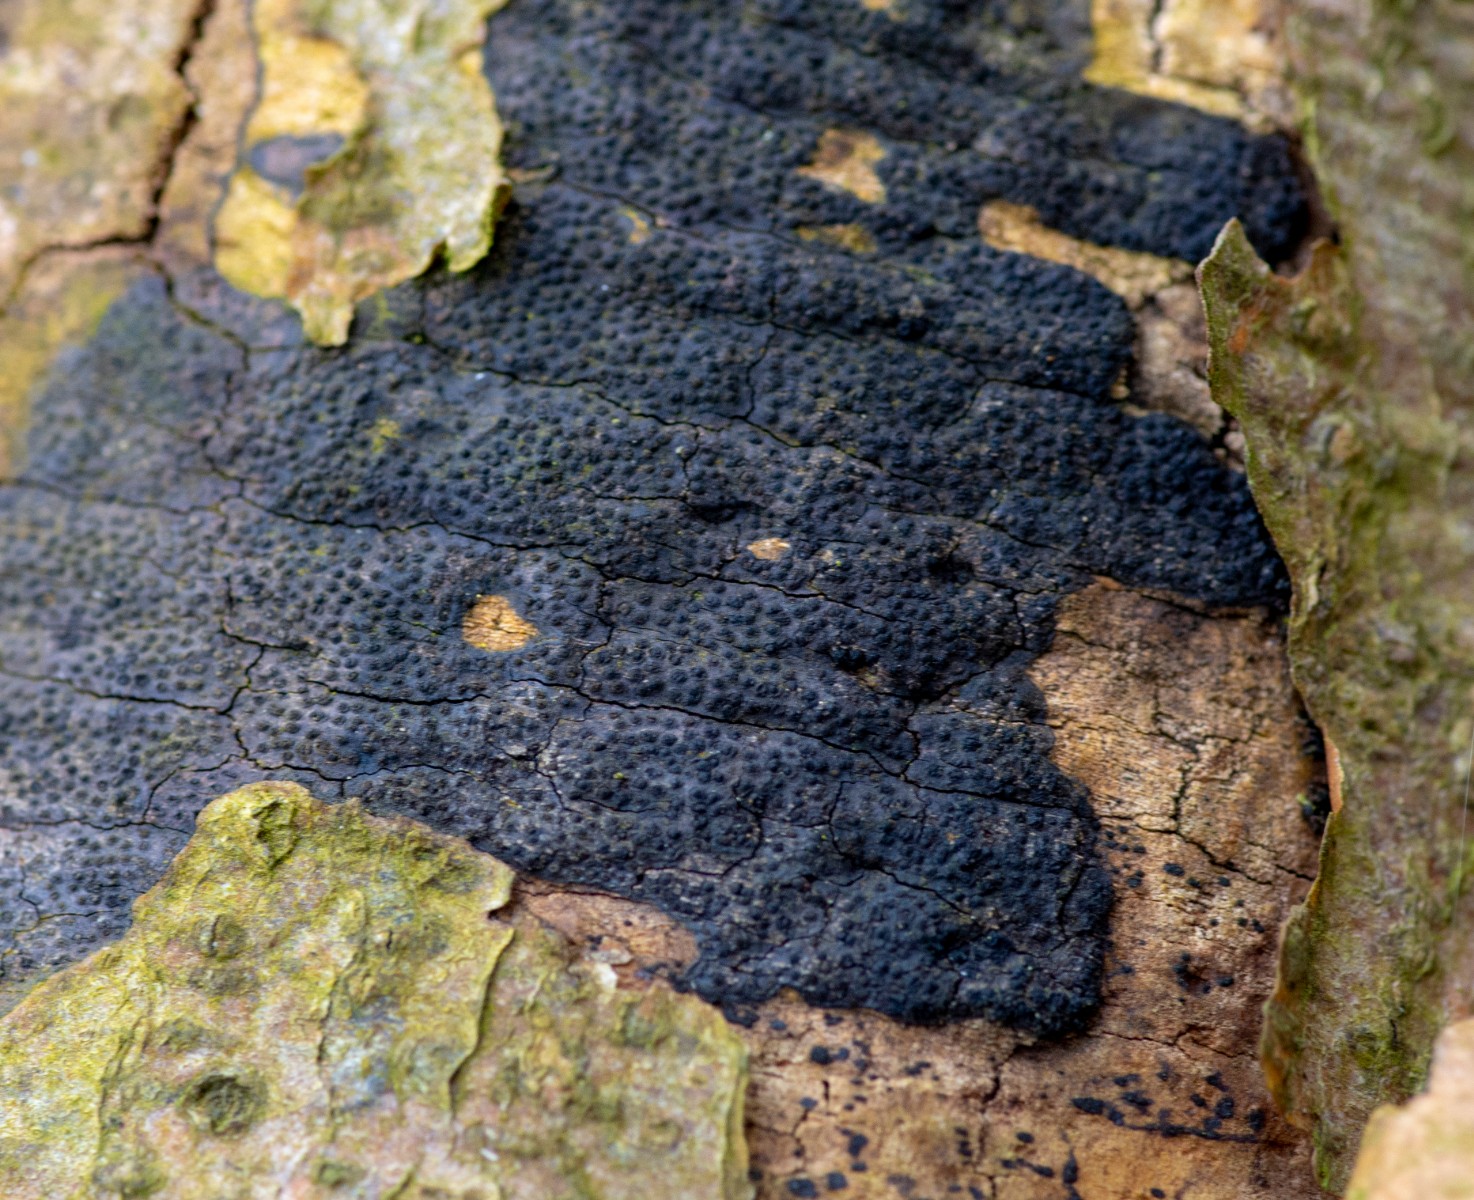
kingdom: Fungi
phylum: Ascomycota
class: Sordariomycetes
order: Xylariales
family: Diatrypaceae
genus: Eutypa
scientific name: Eutypa spinosa
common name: grov kulskorpe
